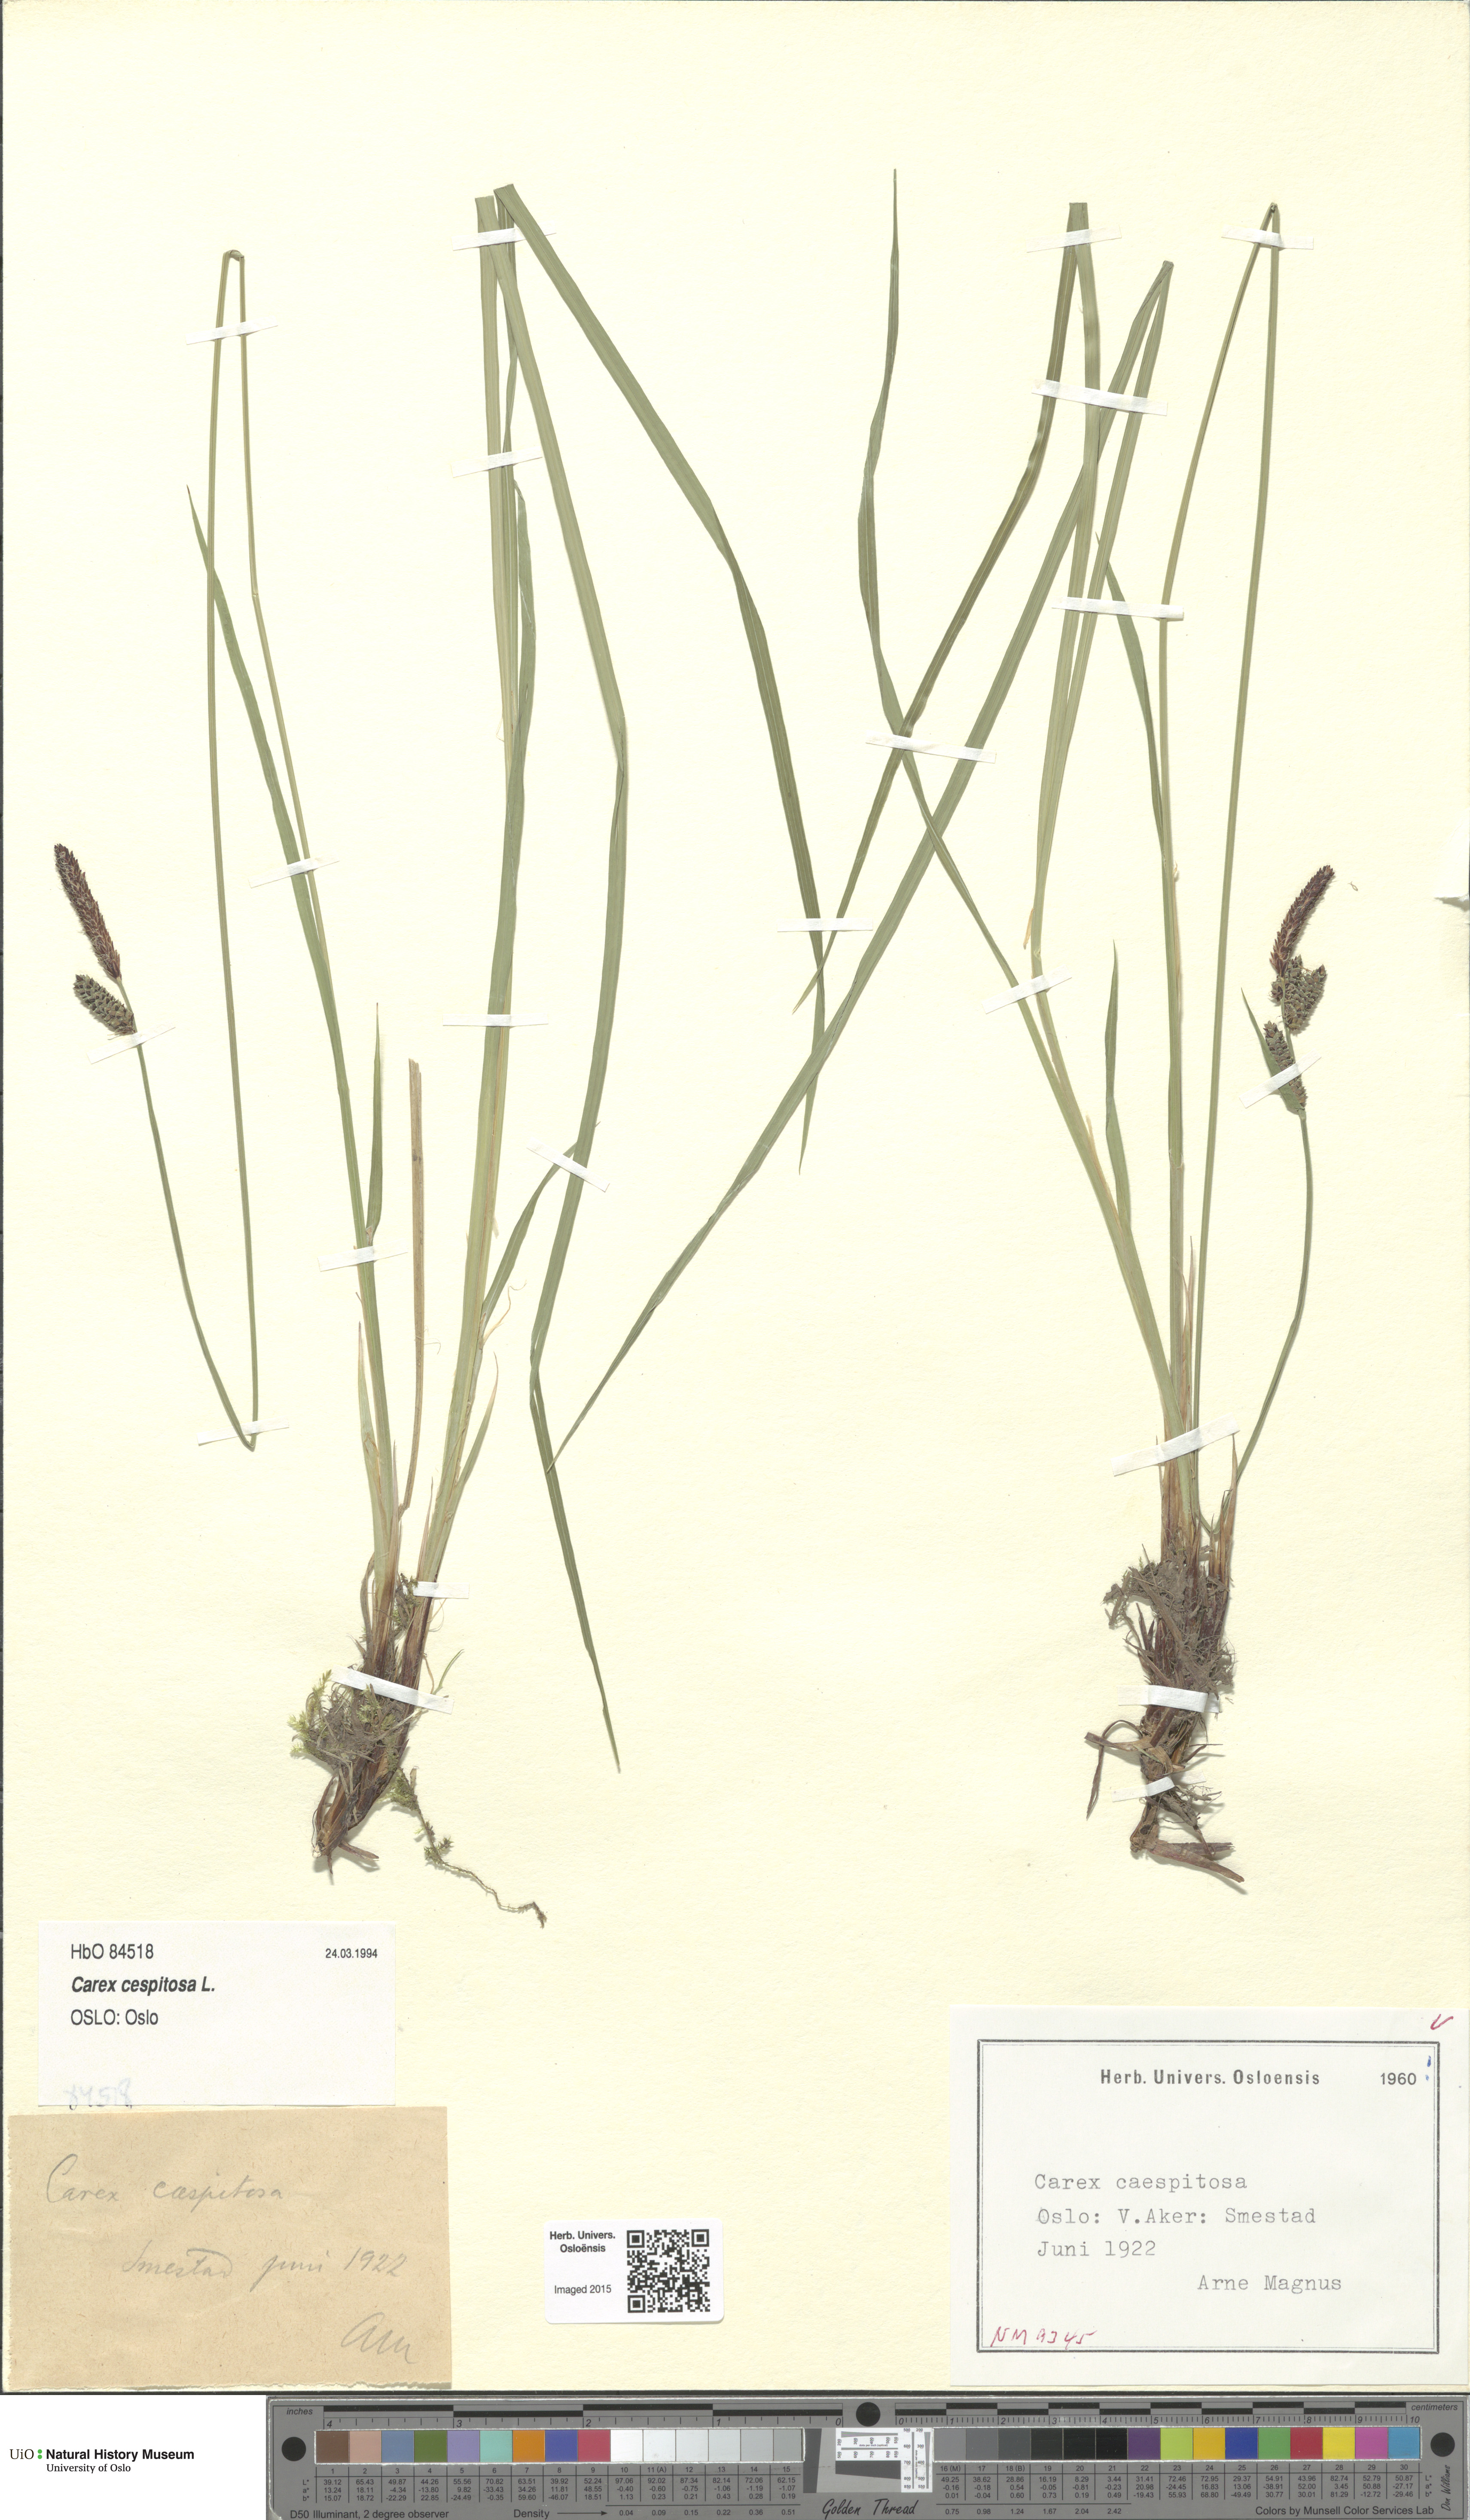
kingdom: Plantae
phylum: Tracheophyta
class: Liliopsida
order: Poales
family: Cyperaceae
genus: Carex
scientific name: Carex cespitosa
